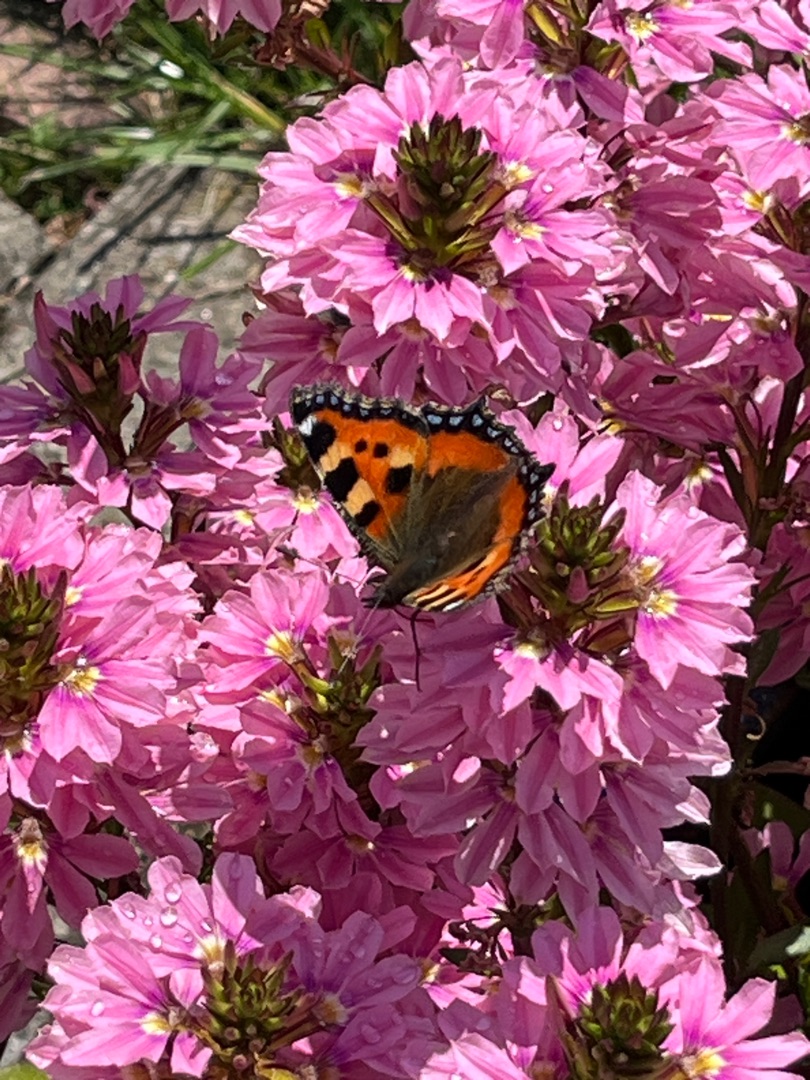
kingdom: Animalia
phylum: Arthropoda
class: Insecta
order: Lepidoptera
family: Nymphalidae
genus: Aglais
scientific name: Aglais urticae
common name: Nældens takvinge
